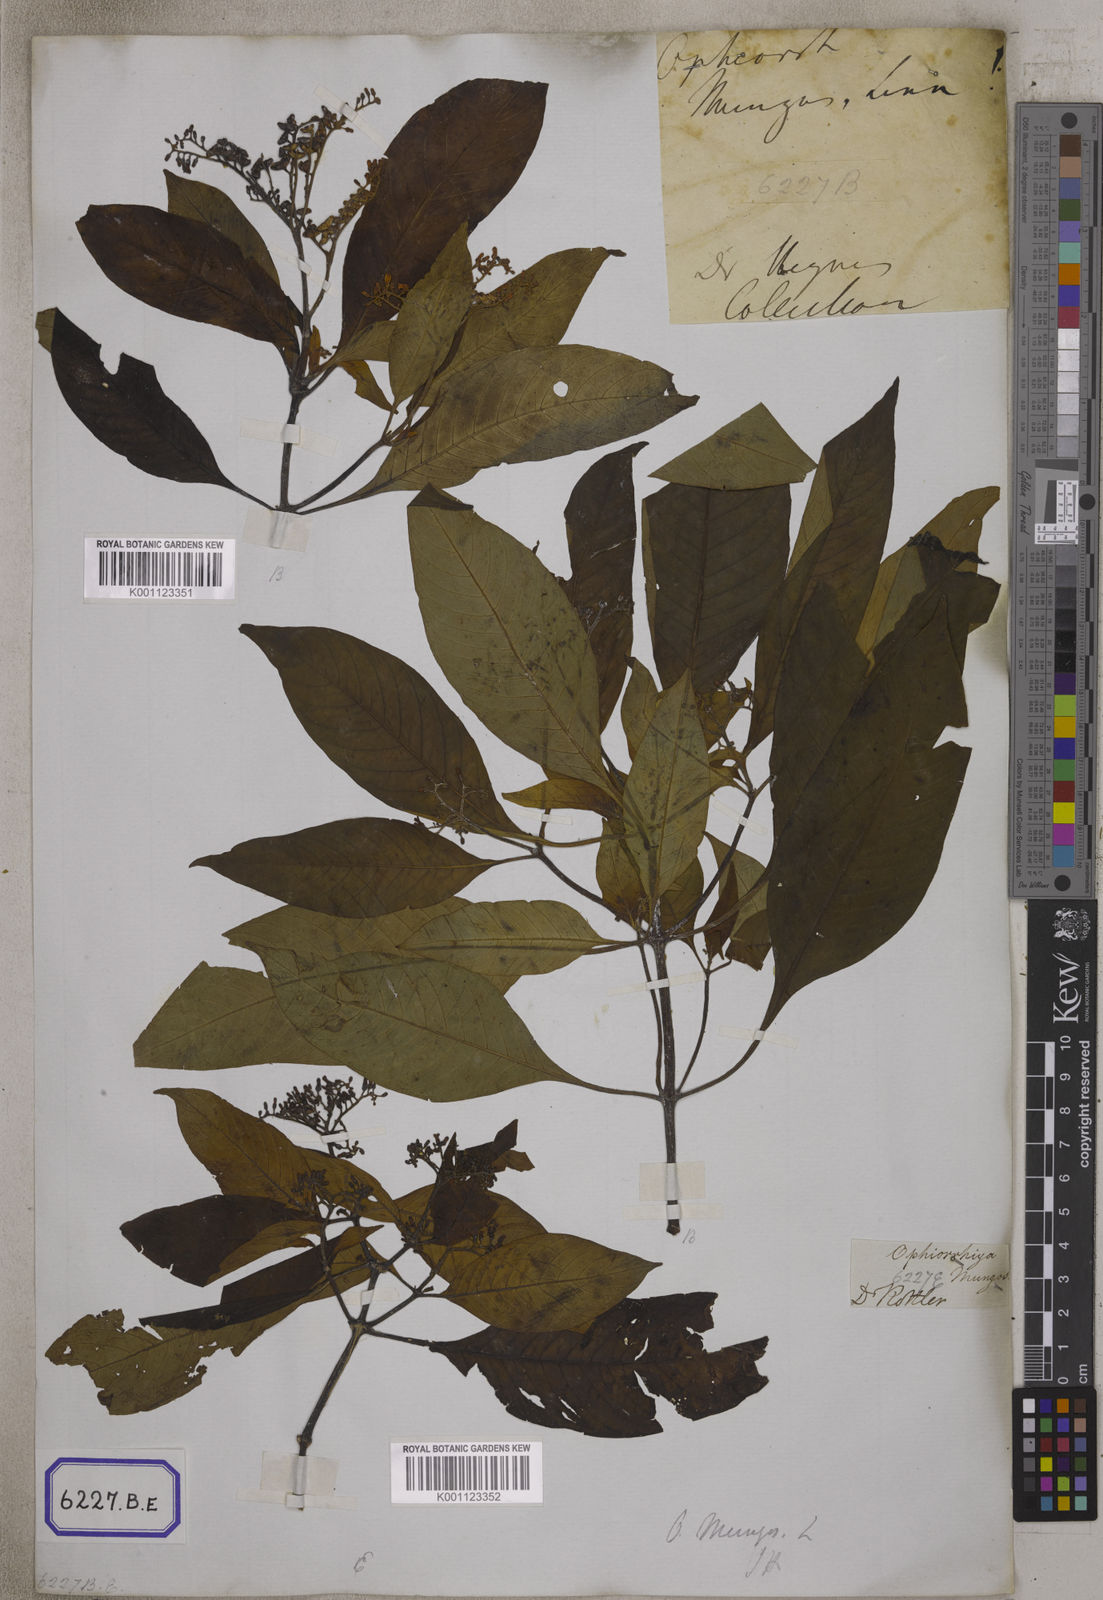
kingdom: Plantae
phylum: Tracheophyta
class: Magnoliopsida
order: Gentianales
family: Rubiaceae
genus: Ophiorrhiza
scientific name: Ophiorrhiza mungos
